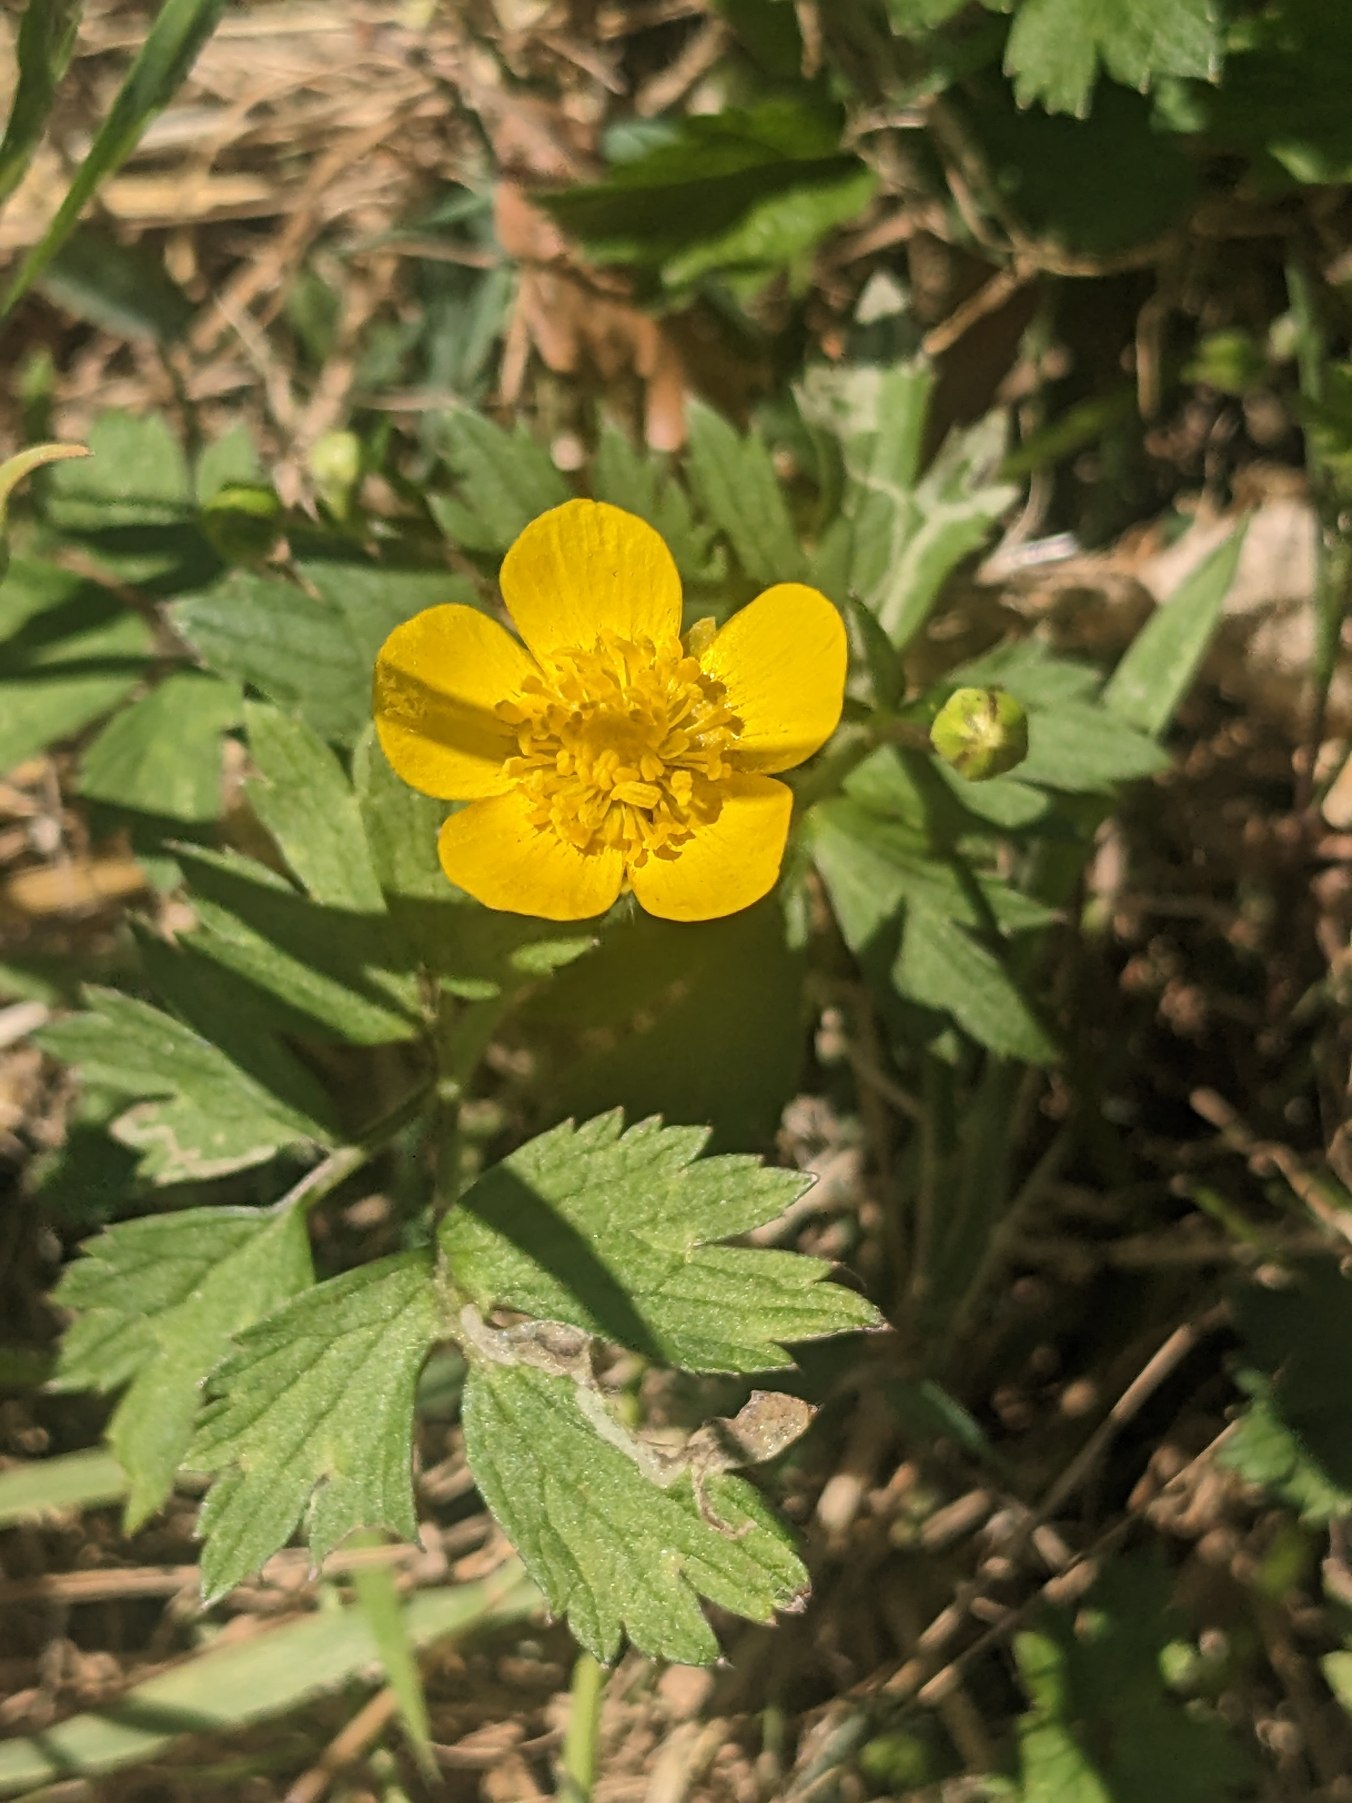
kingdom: Plantae
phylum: Tracheophyta
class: Magnoliopsida
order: Ranunculales
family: Ranunculaceae
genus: Ranunculus
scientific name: Ranunculus repens
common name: Lav ranunkel
